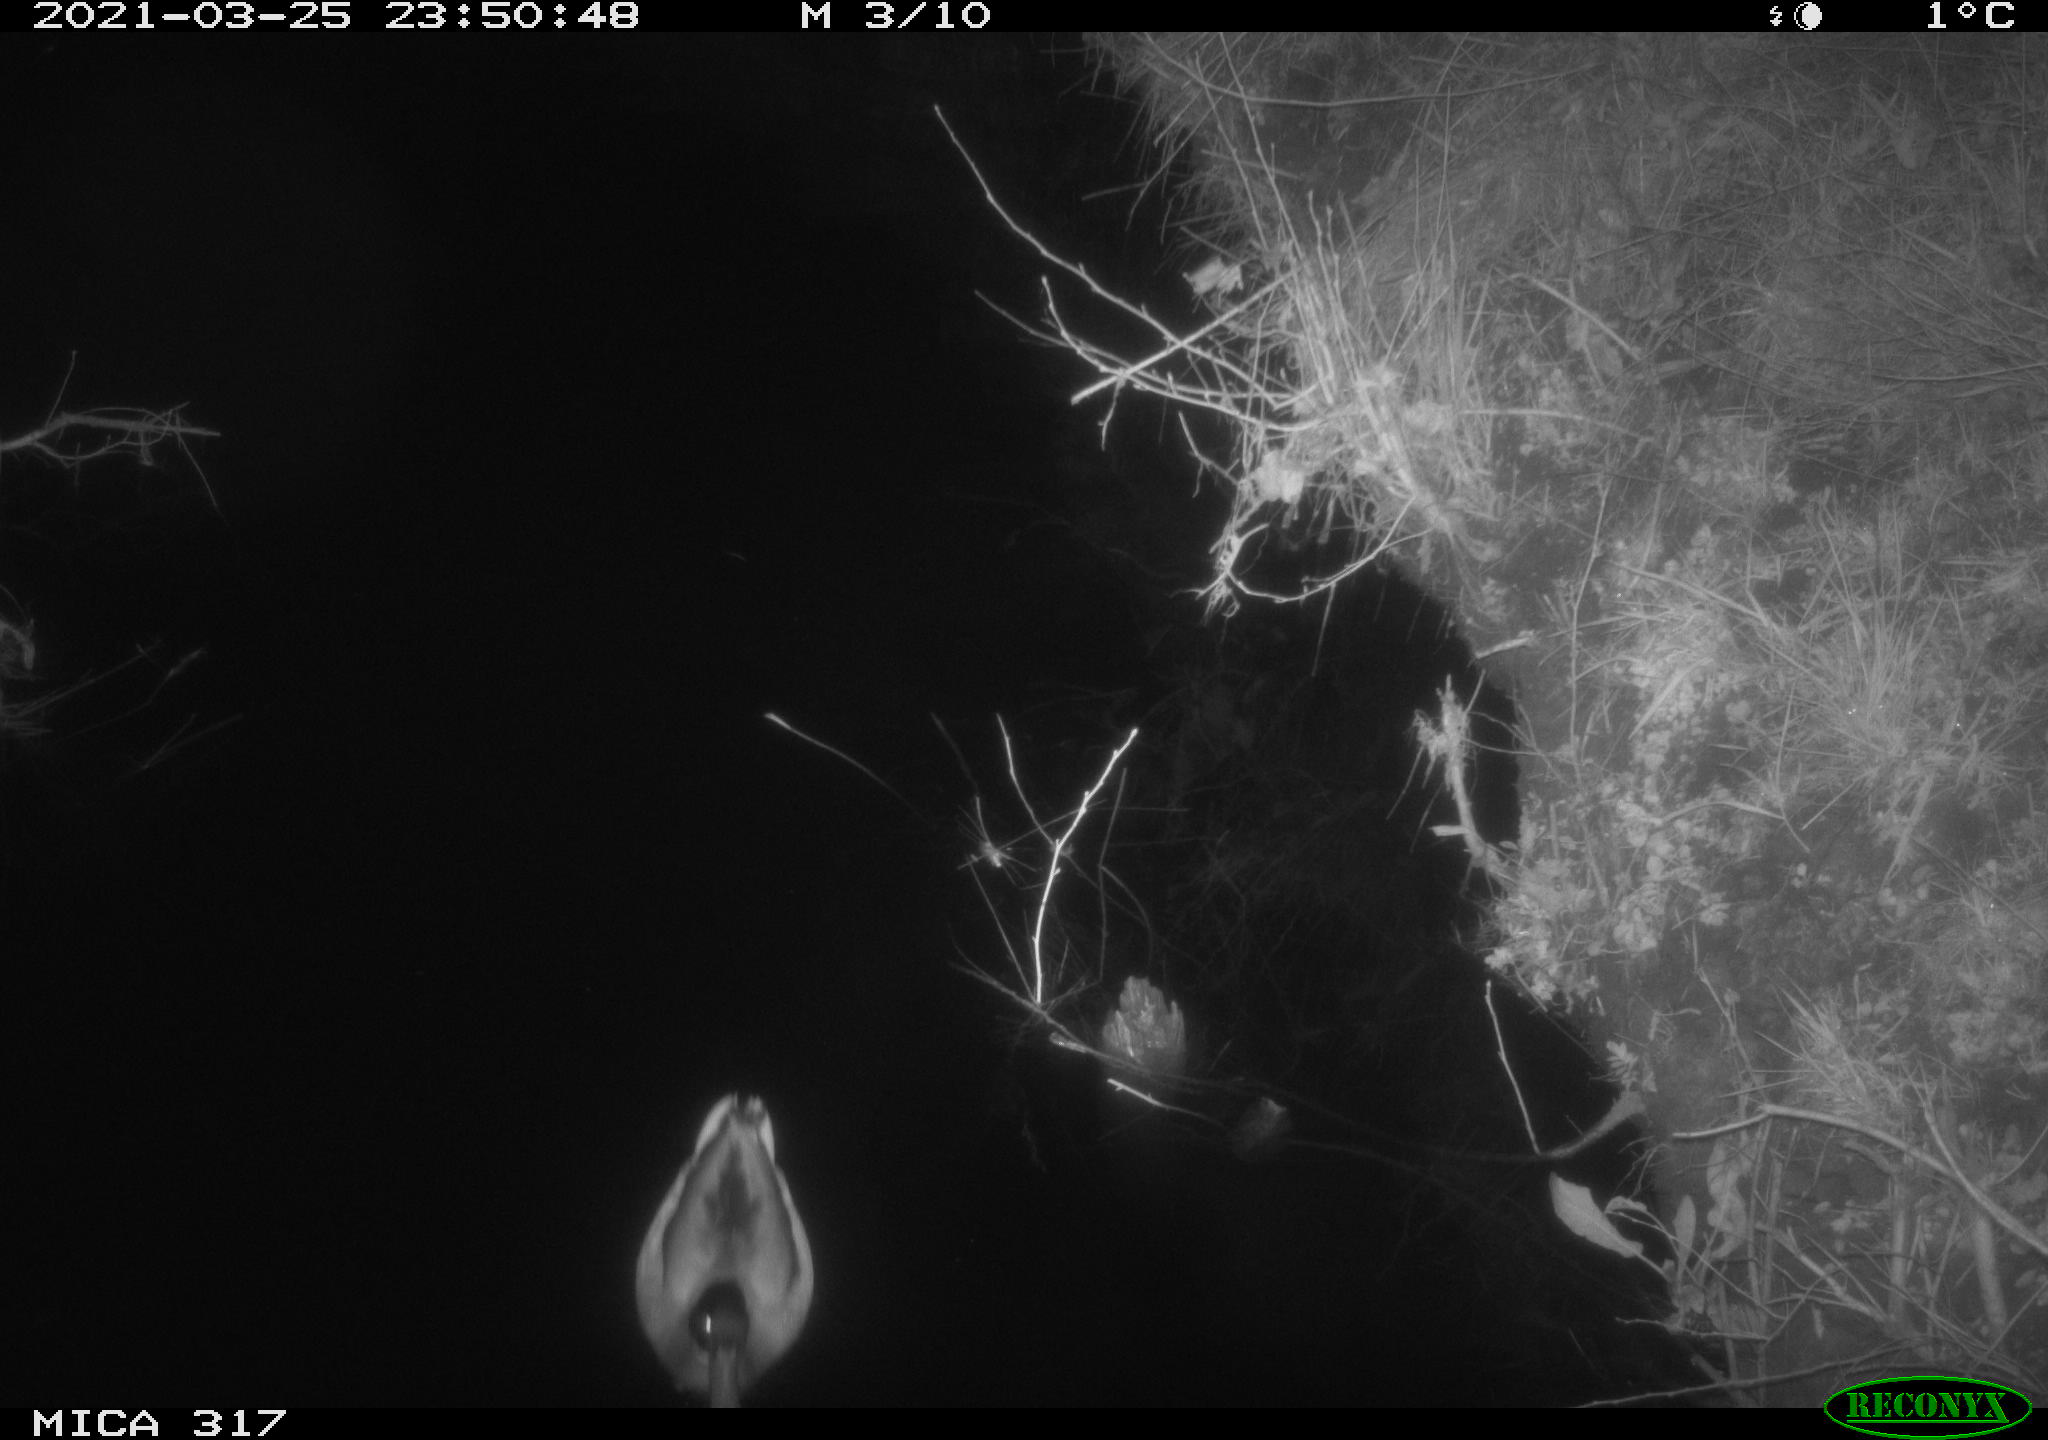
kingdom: Animalia
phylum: Chordata
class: Aves
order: Anseriformes
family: Anatidae
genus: Anas
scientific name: Anas platyrhynchos
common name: Mallard
